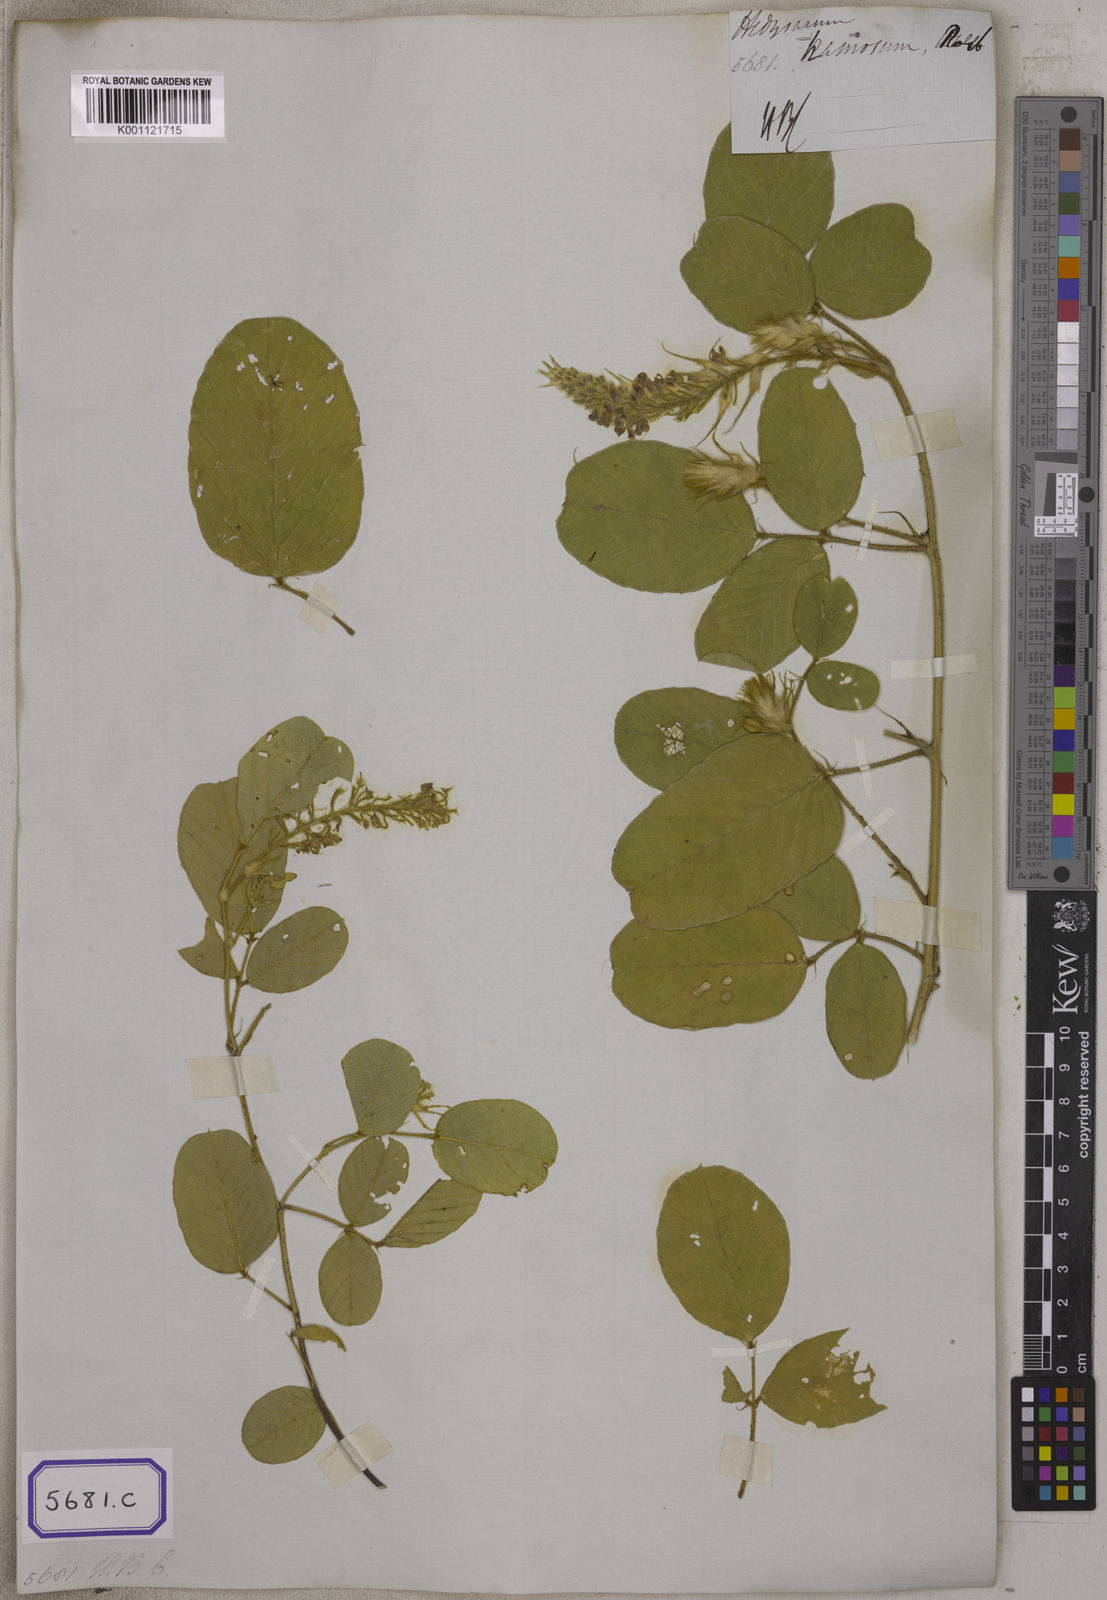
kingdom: Plantae
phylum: Tracheophyta
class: Magnoliopsida
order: Fabales
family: Fabaceae
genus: Uraria
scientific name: Uraria lagopus
